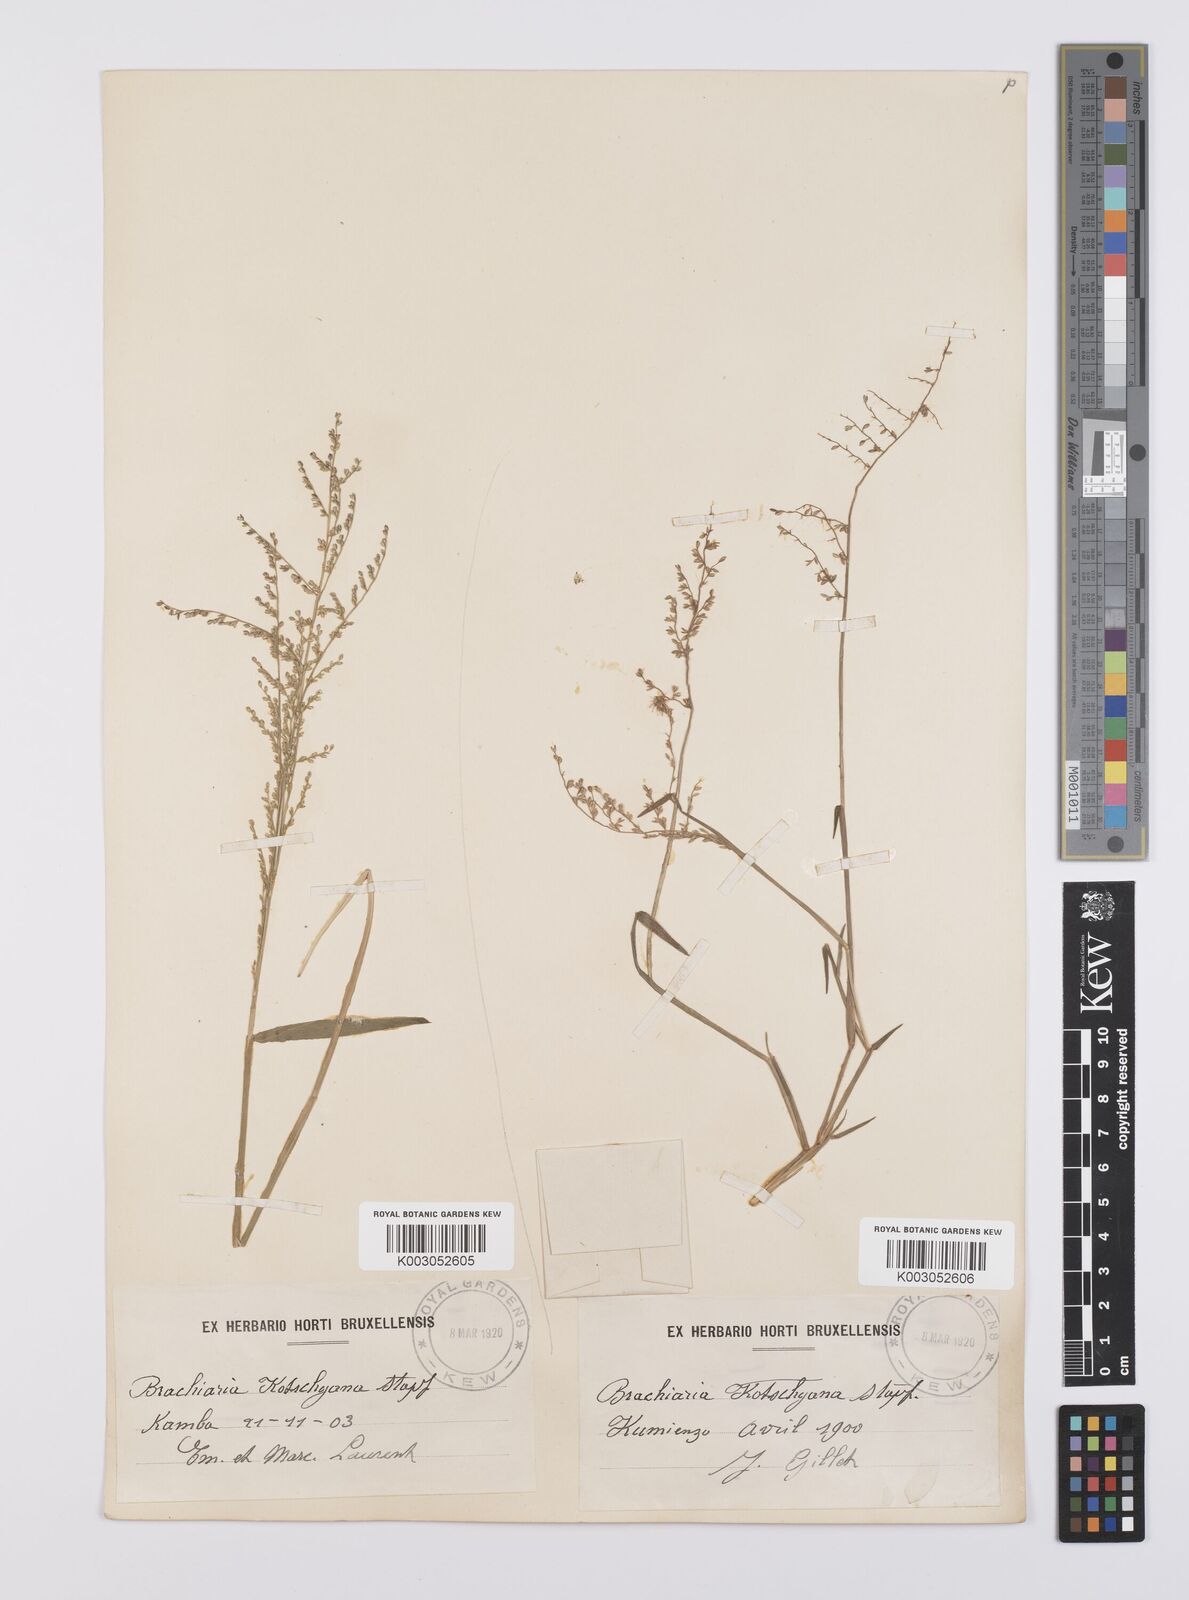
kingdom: Plantae
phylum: Tracheophyta
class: Liliopsida
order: Poales
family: Poaceae
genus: Urochloa
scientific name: Urochloa comata
